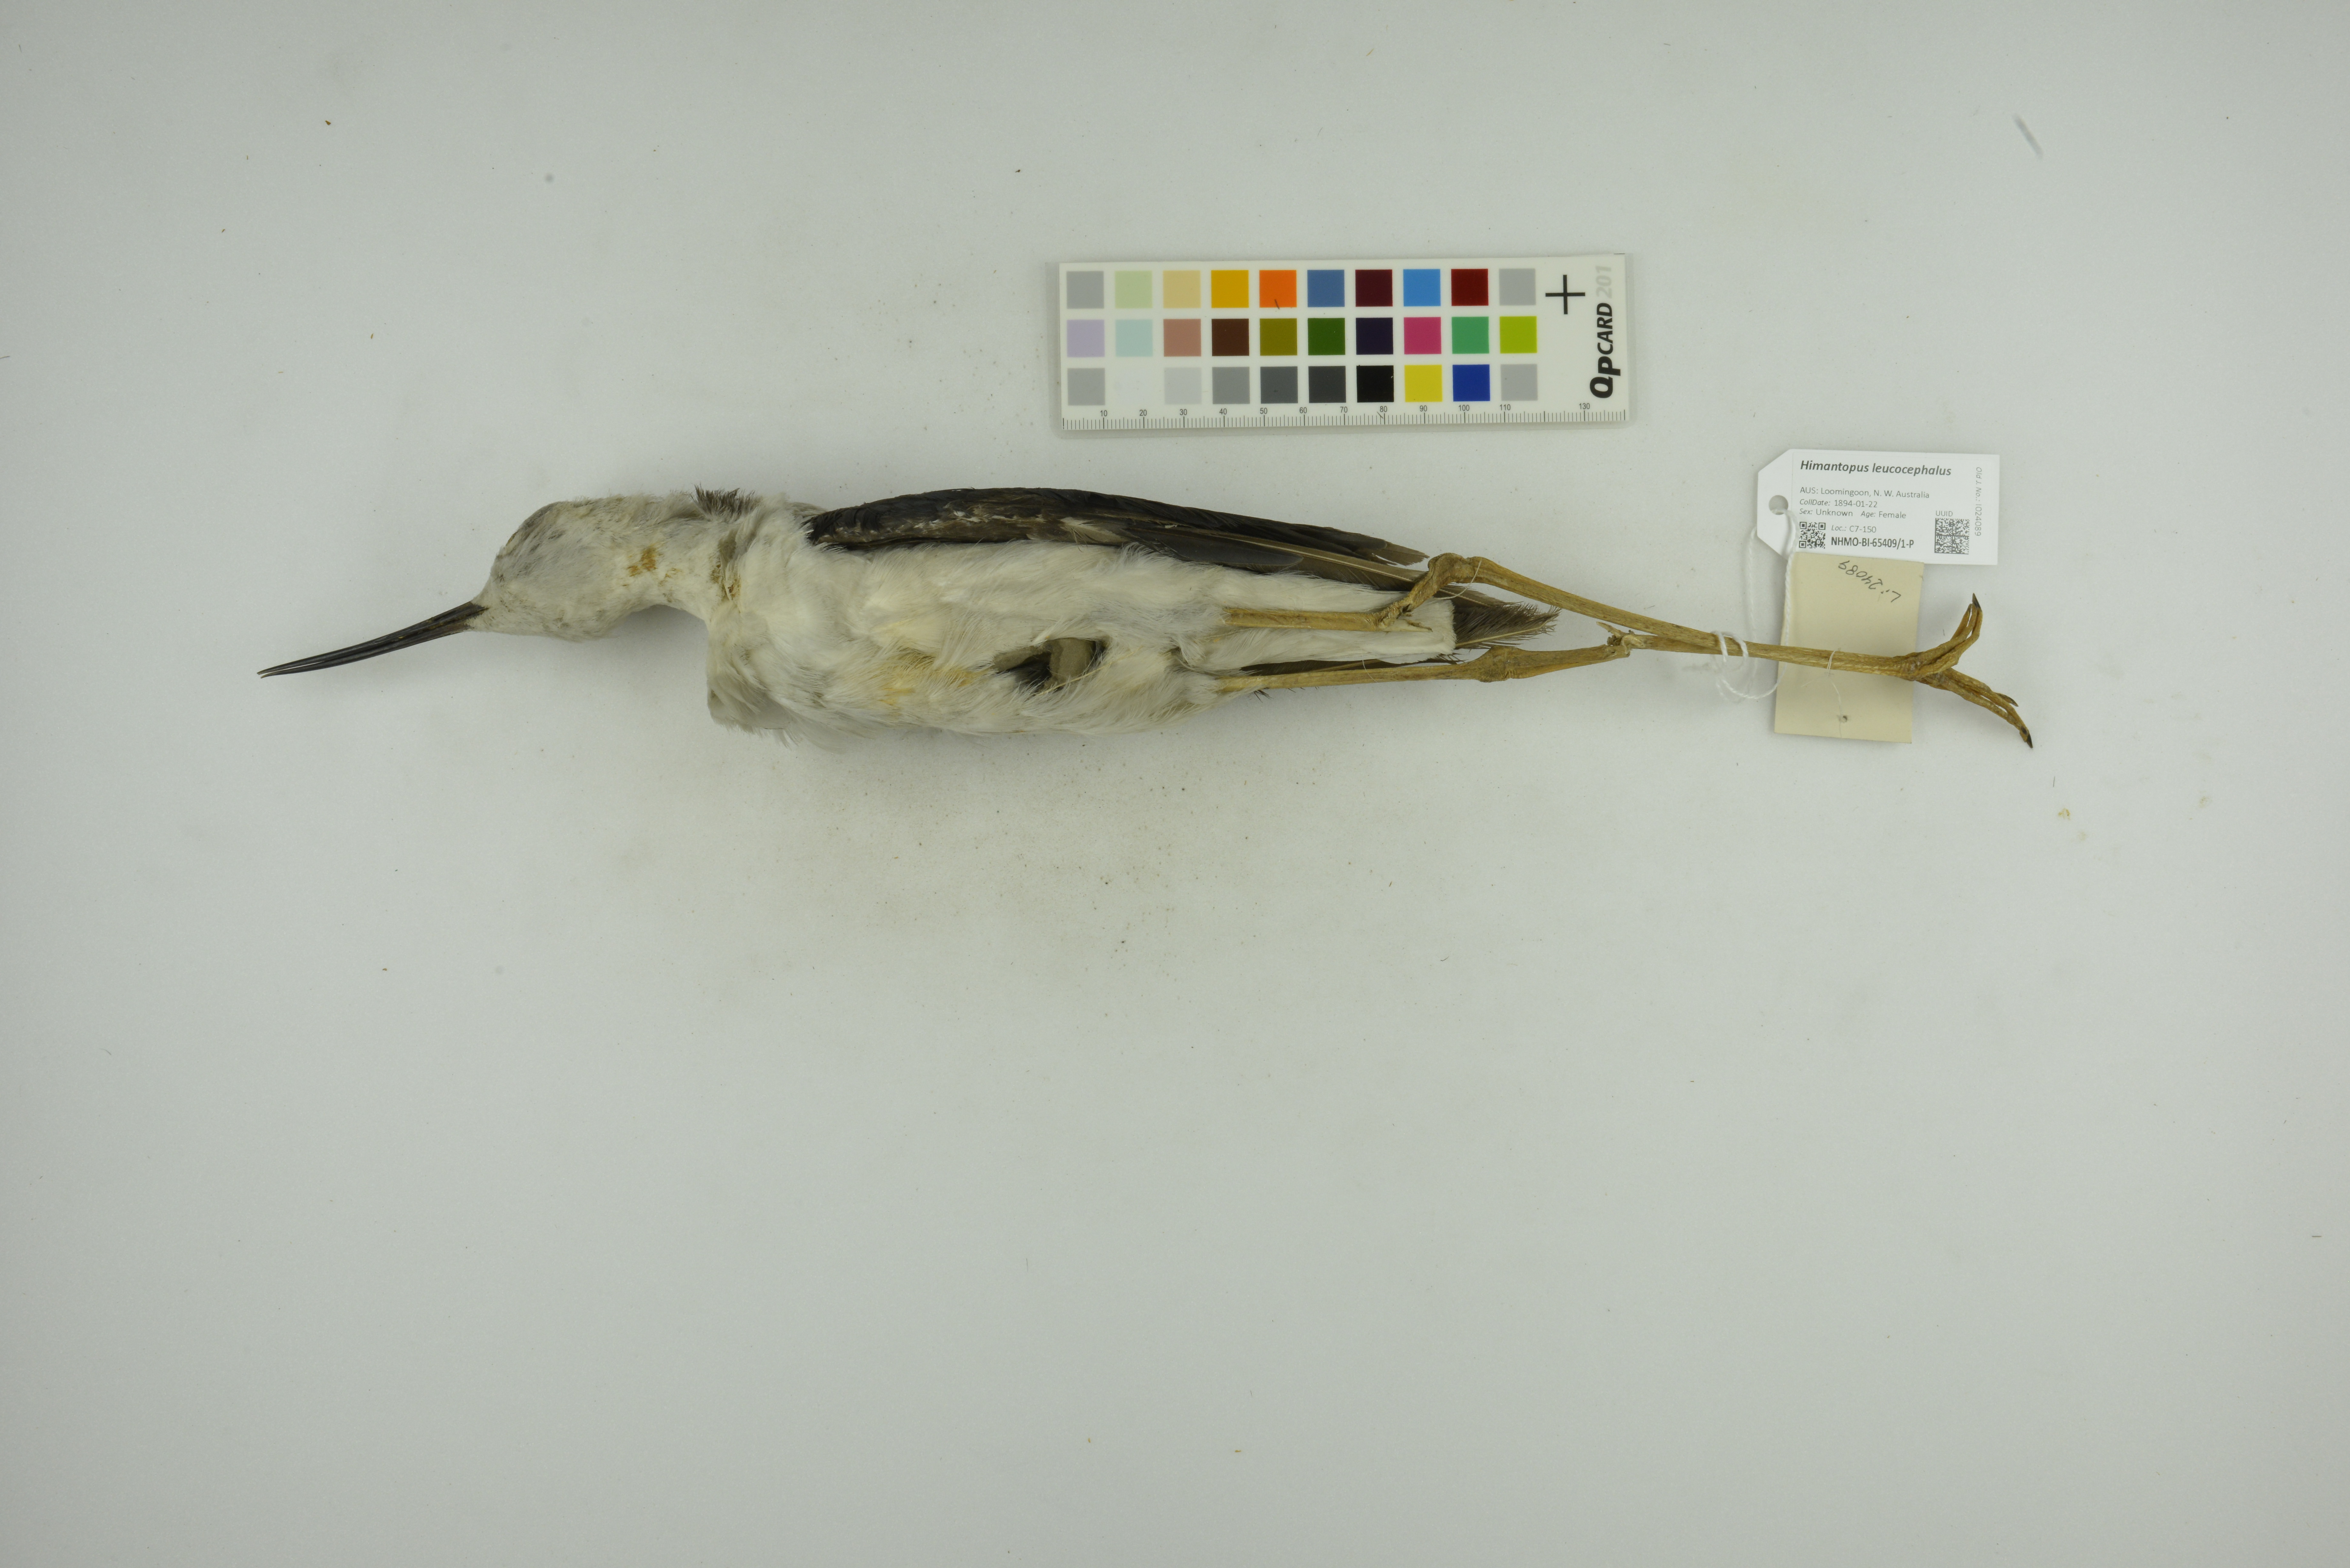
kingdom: Animalia
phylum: Chordata
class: Aves
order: Charadriiformes
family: Recurvirostridae
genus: Himantopus
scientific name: Himantopus leucocephalus
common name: White-headed stilt
